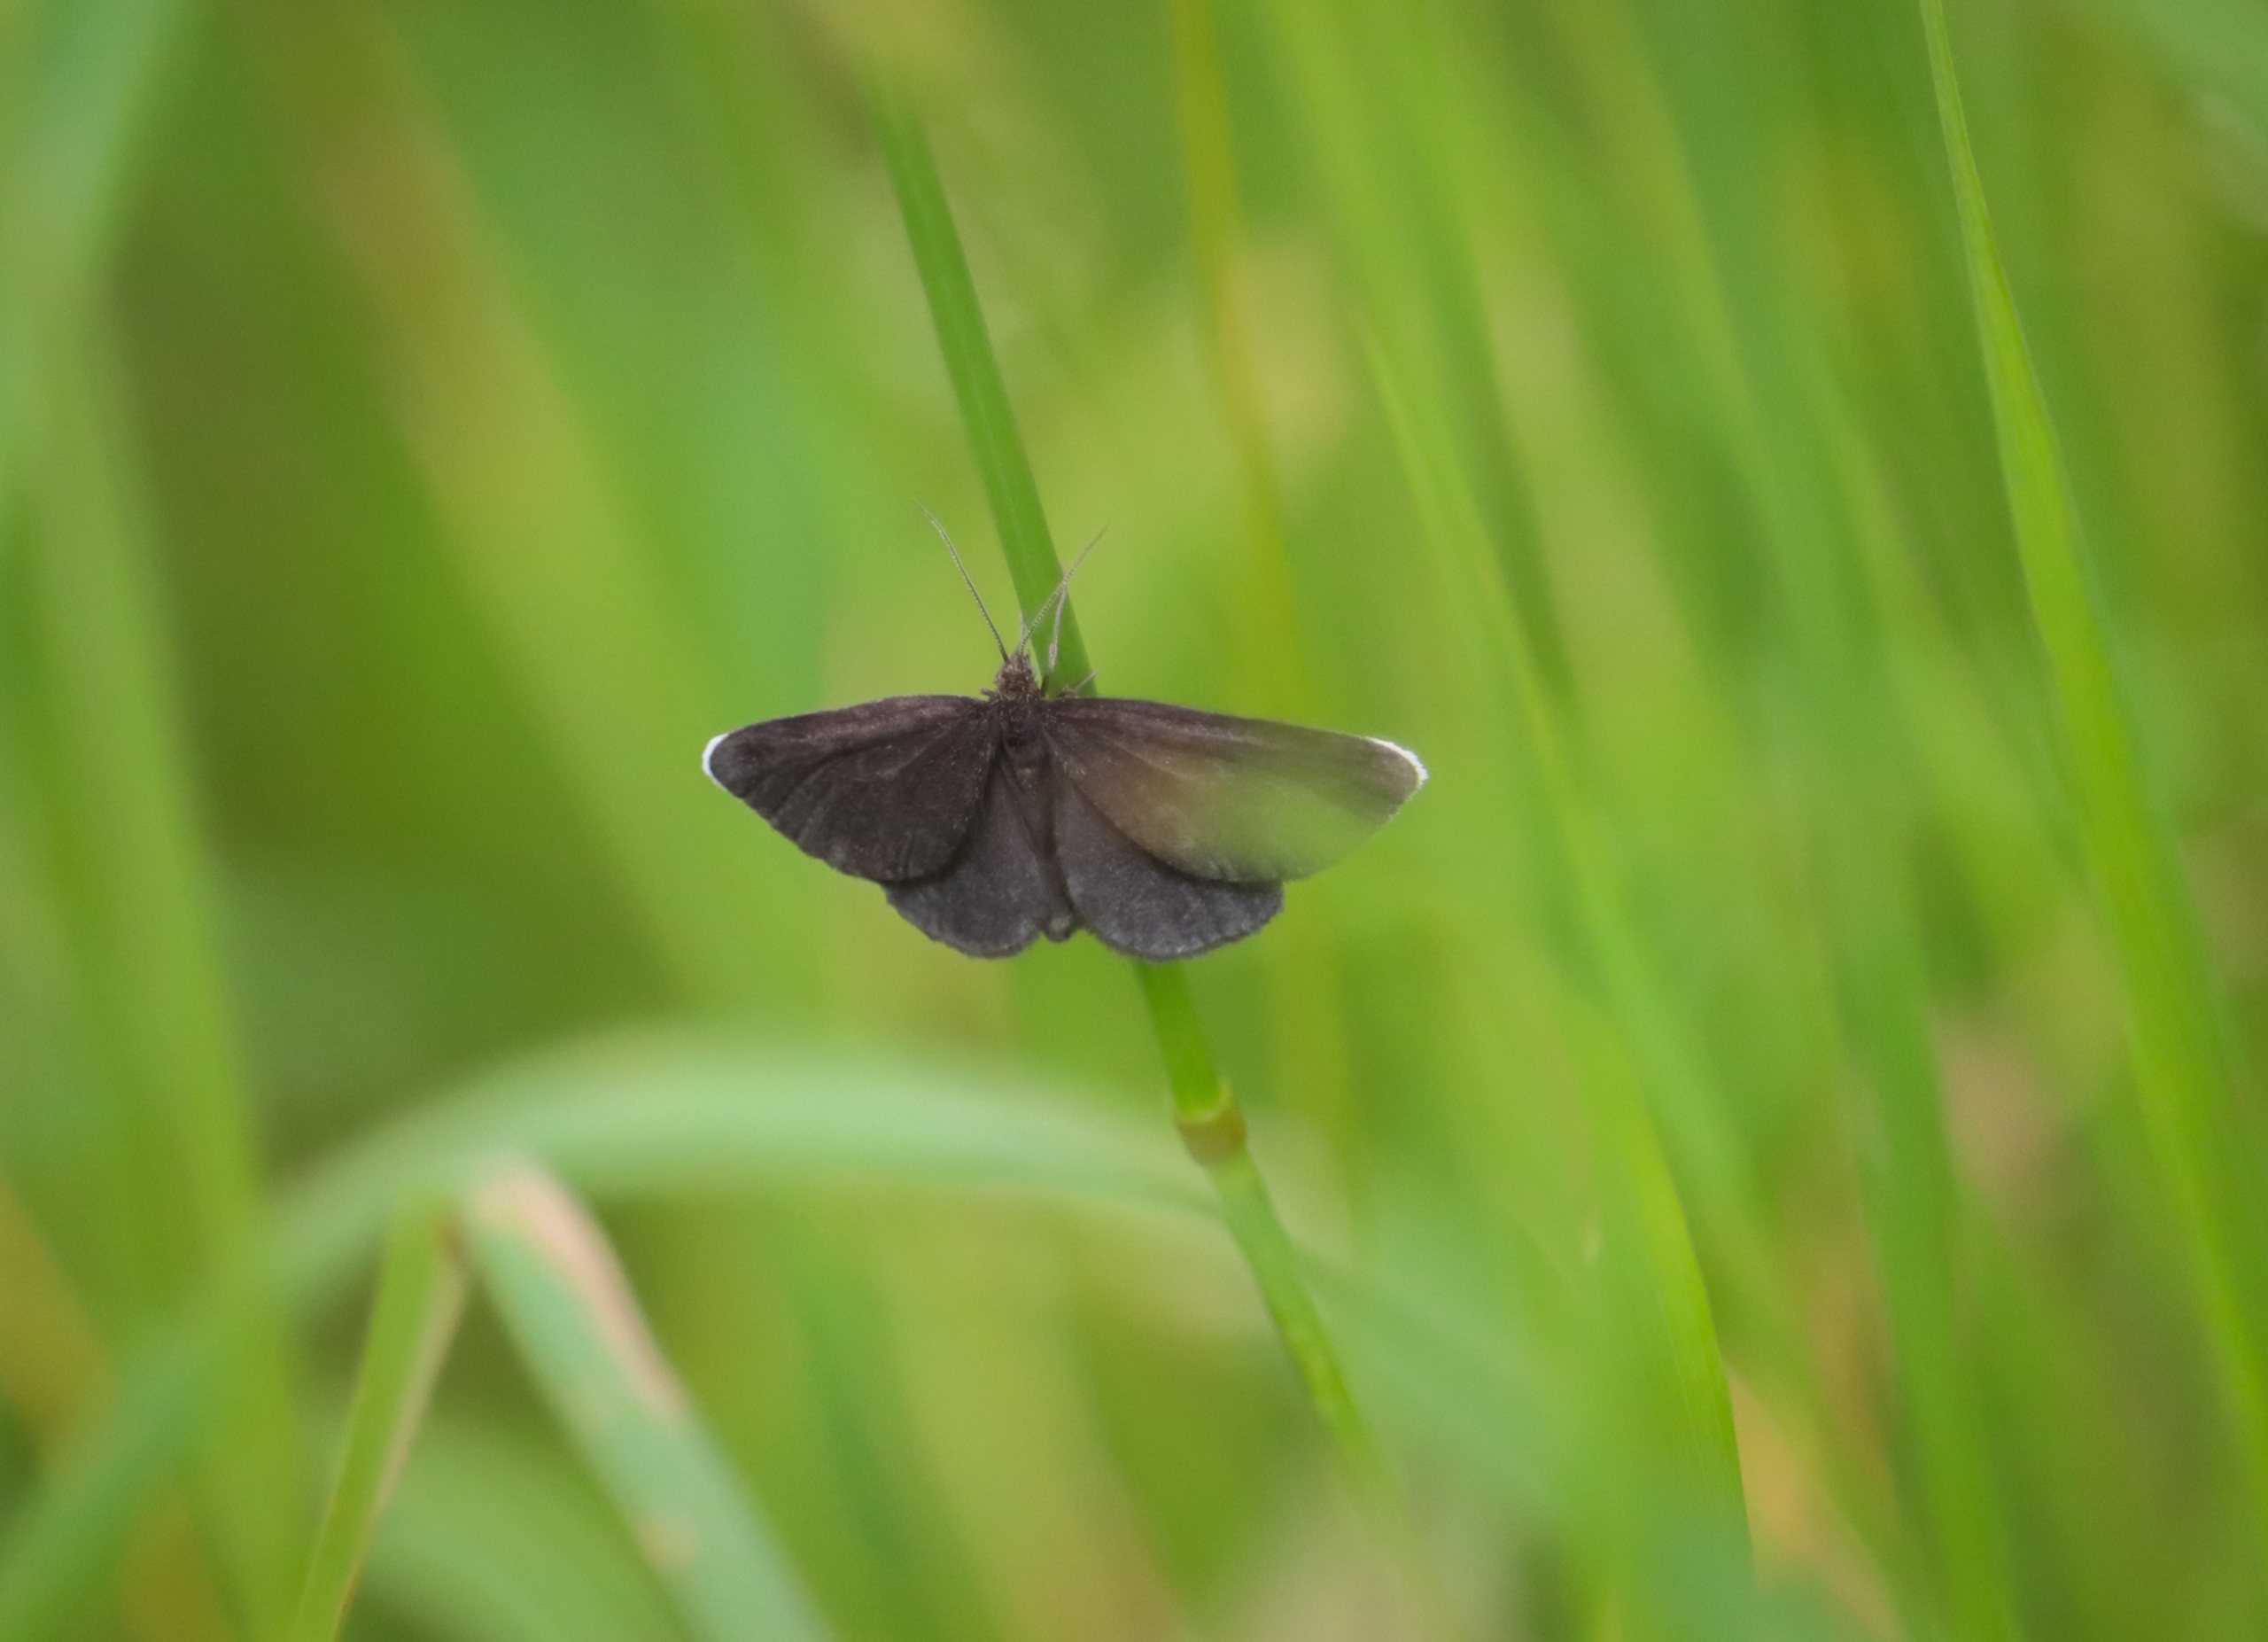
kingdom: Animalia
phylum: Arthropoda
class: Insecta
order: Lepidoptera
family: Geometridae
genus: Odezia
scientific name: Odezia atrata
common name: Sort måler
